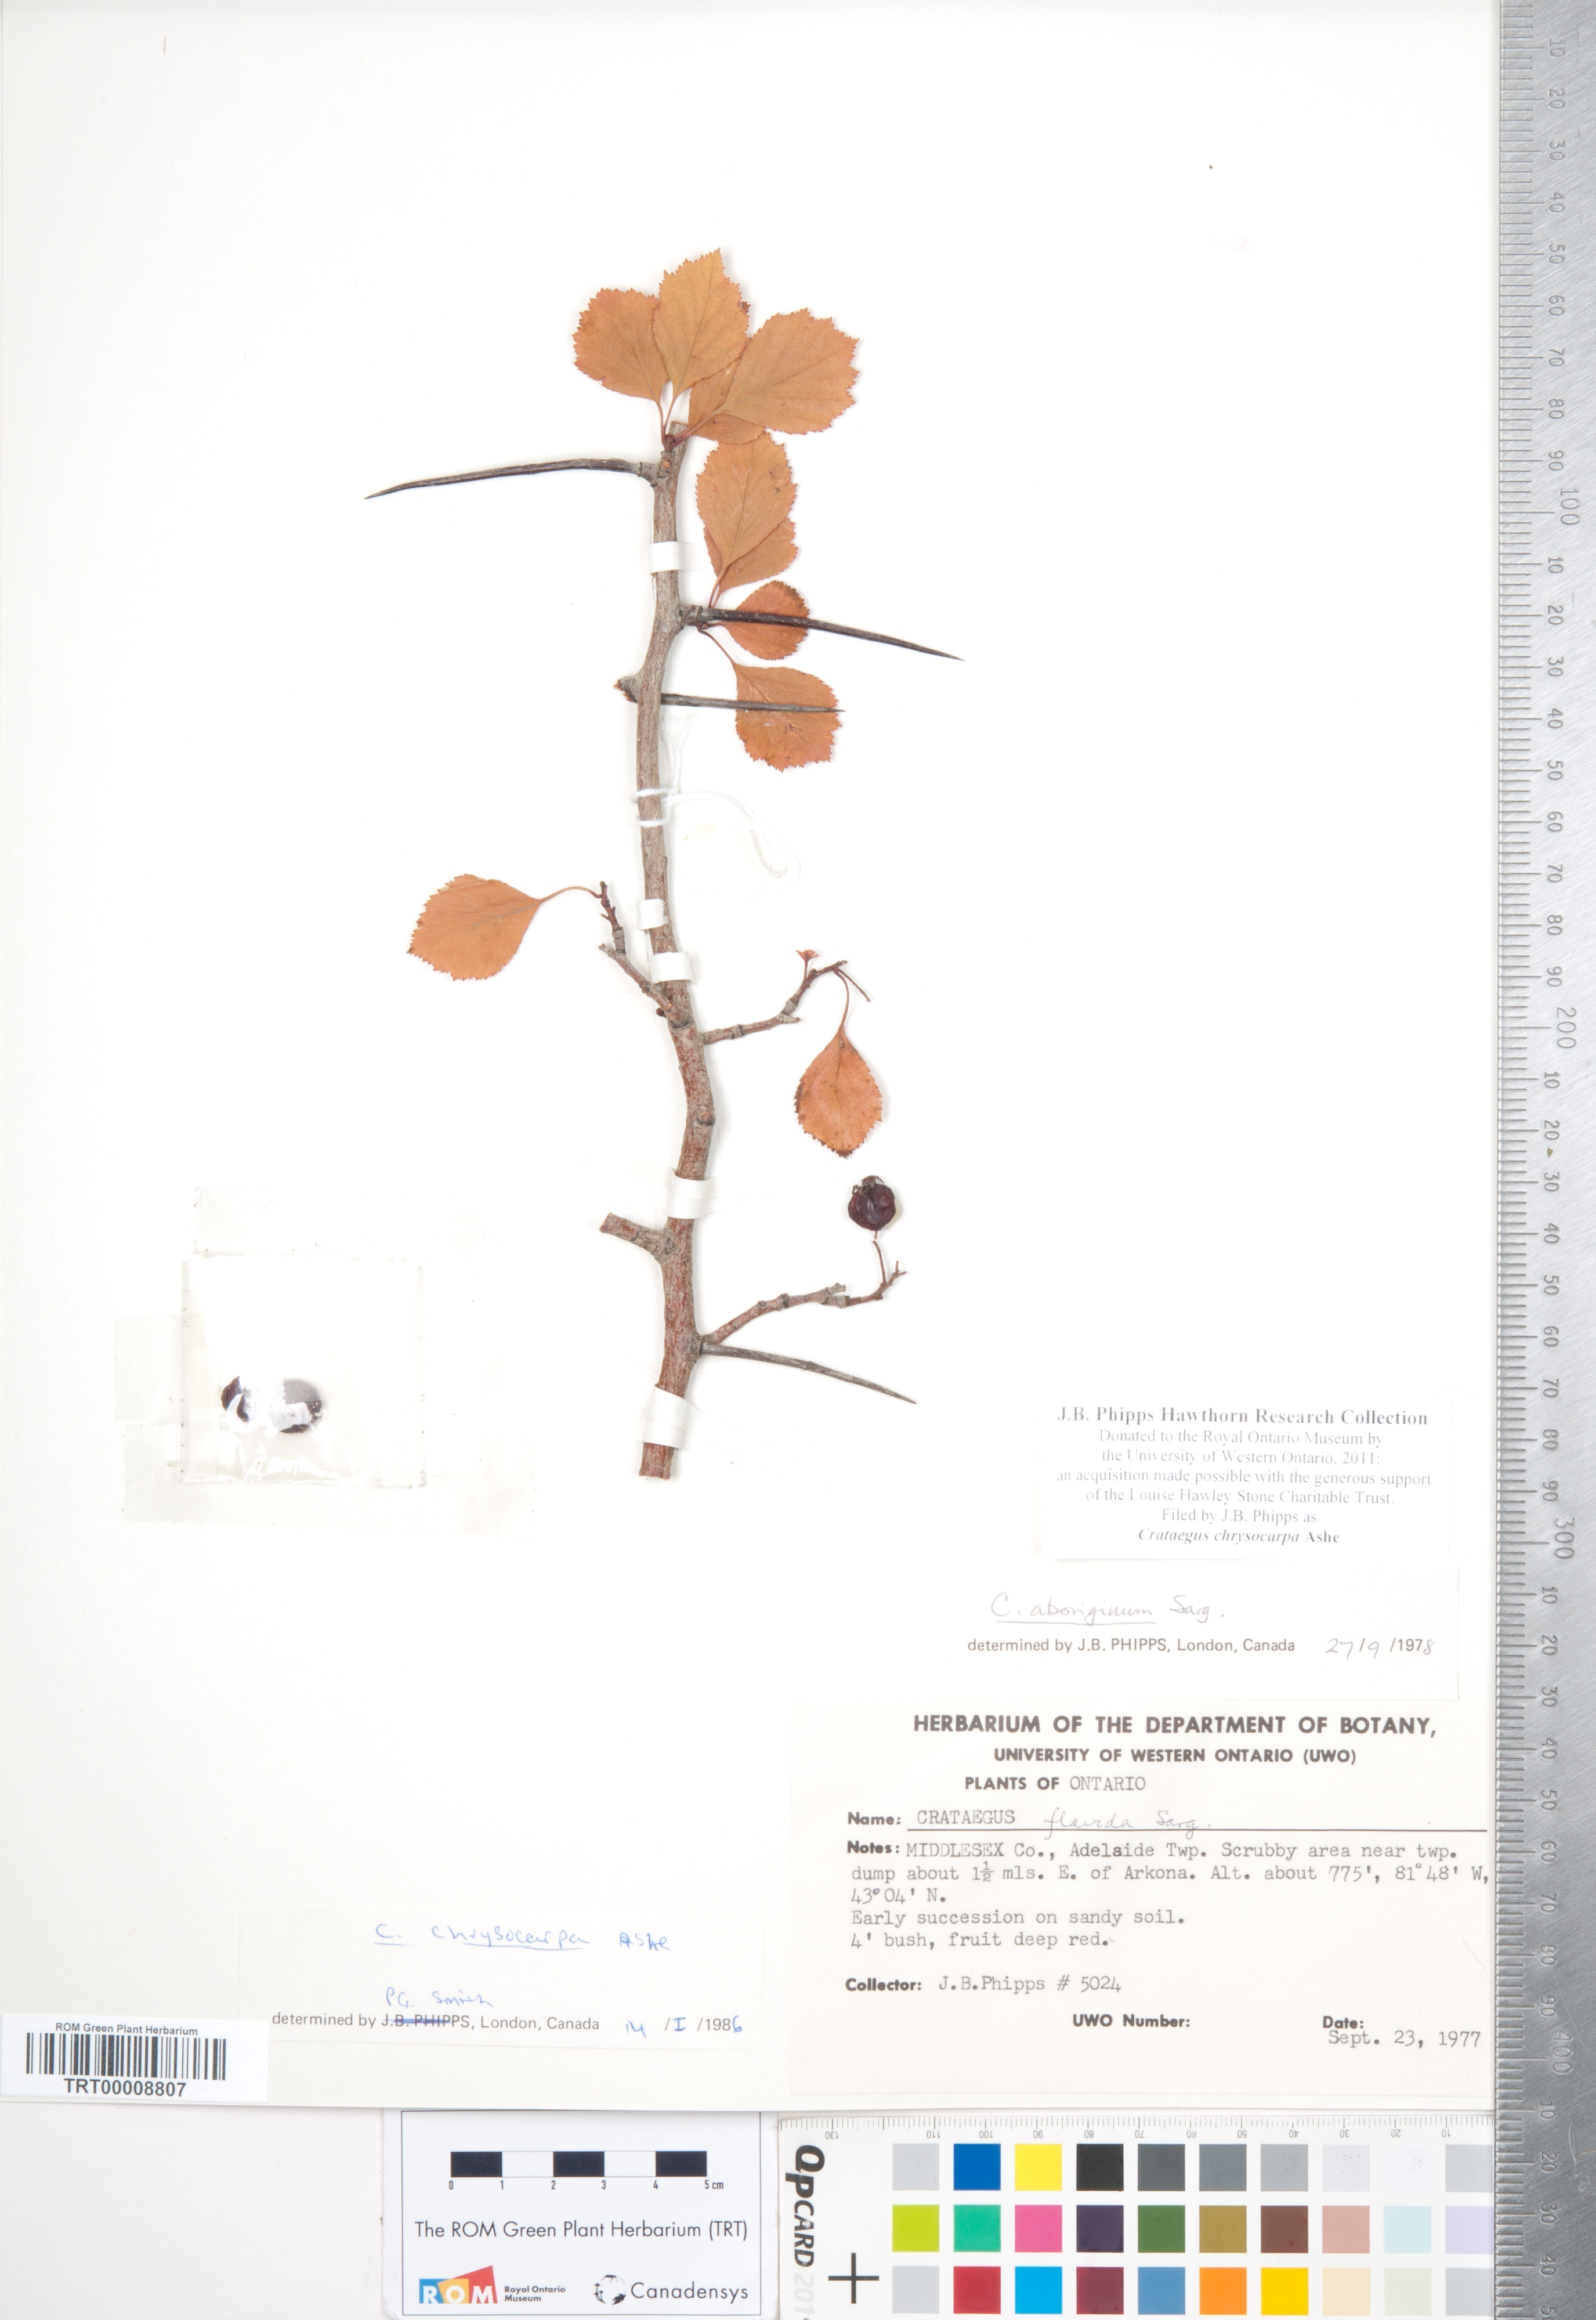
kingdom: Plantae
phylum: Tracheophyta
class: Magnoliopsida
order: Rosales
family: Rosaceae
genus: Crataegus
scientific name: Crataegus chrysocarpa
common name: Fire-berry hawthorn
